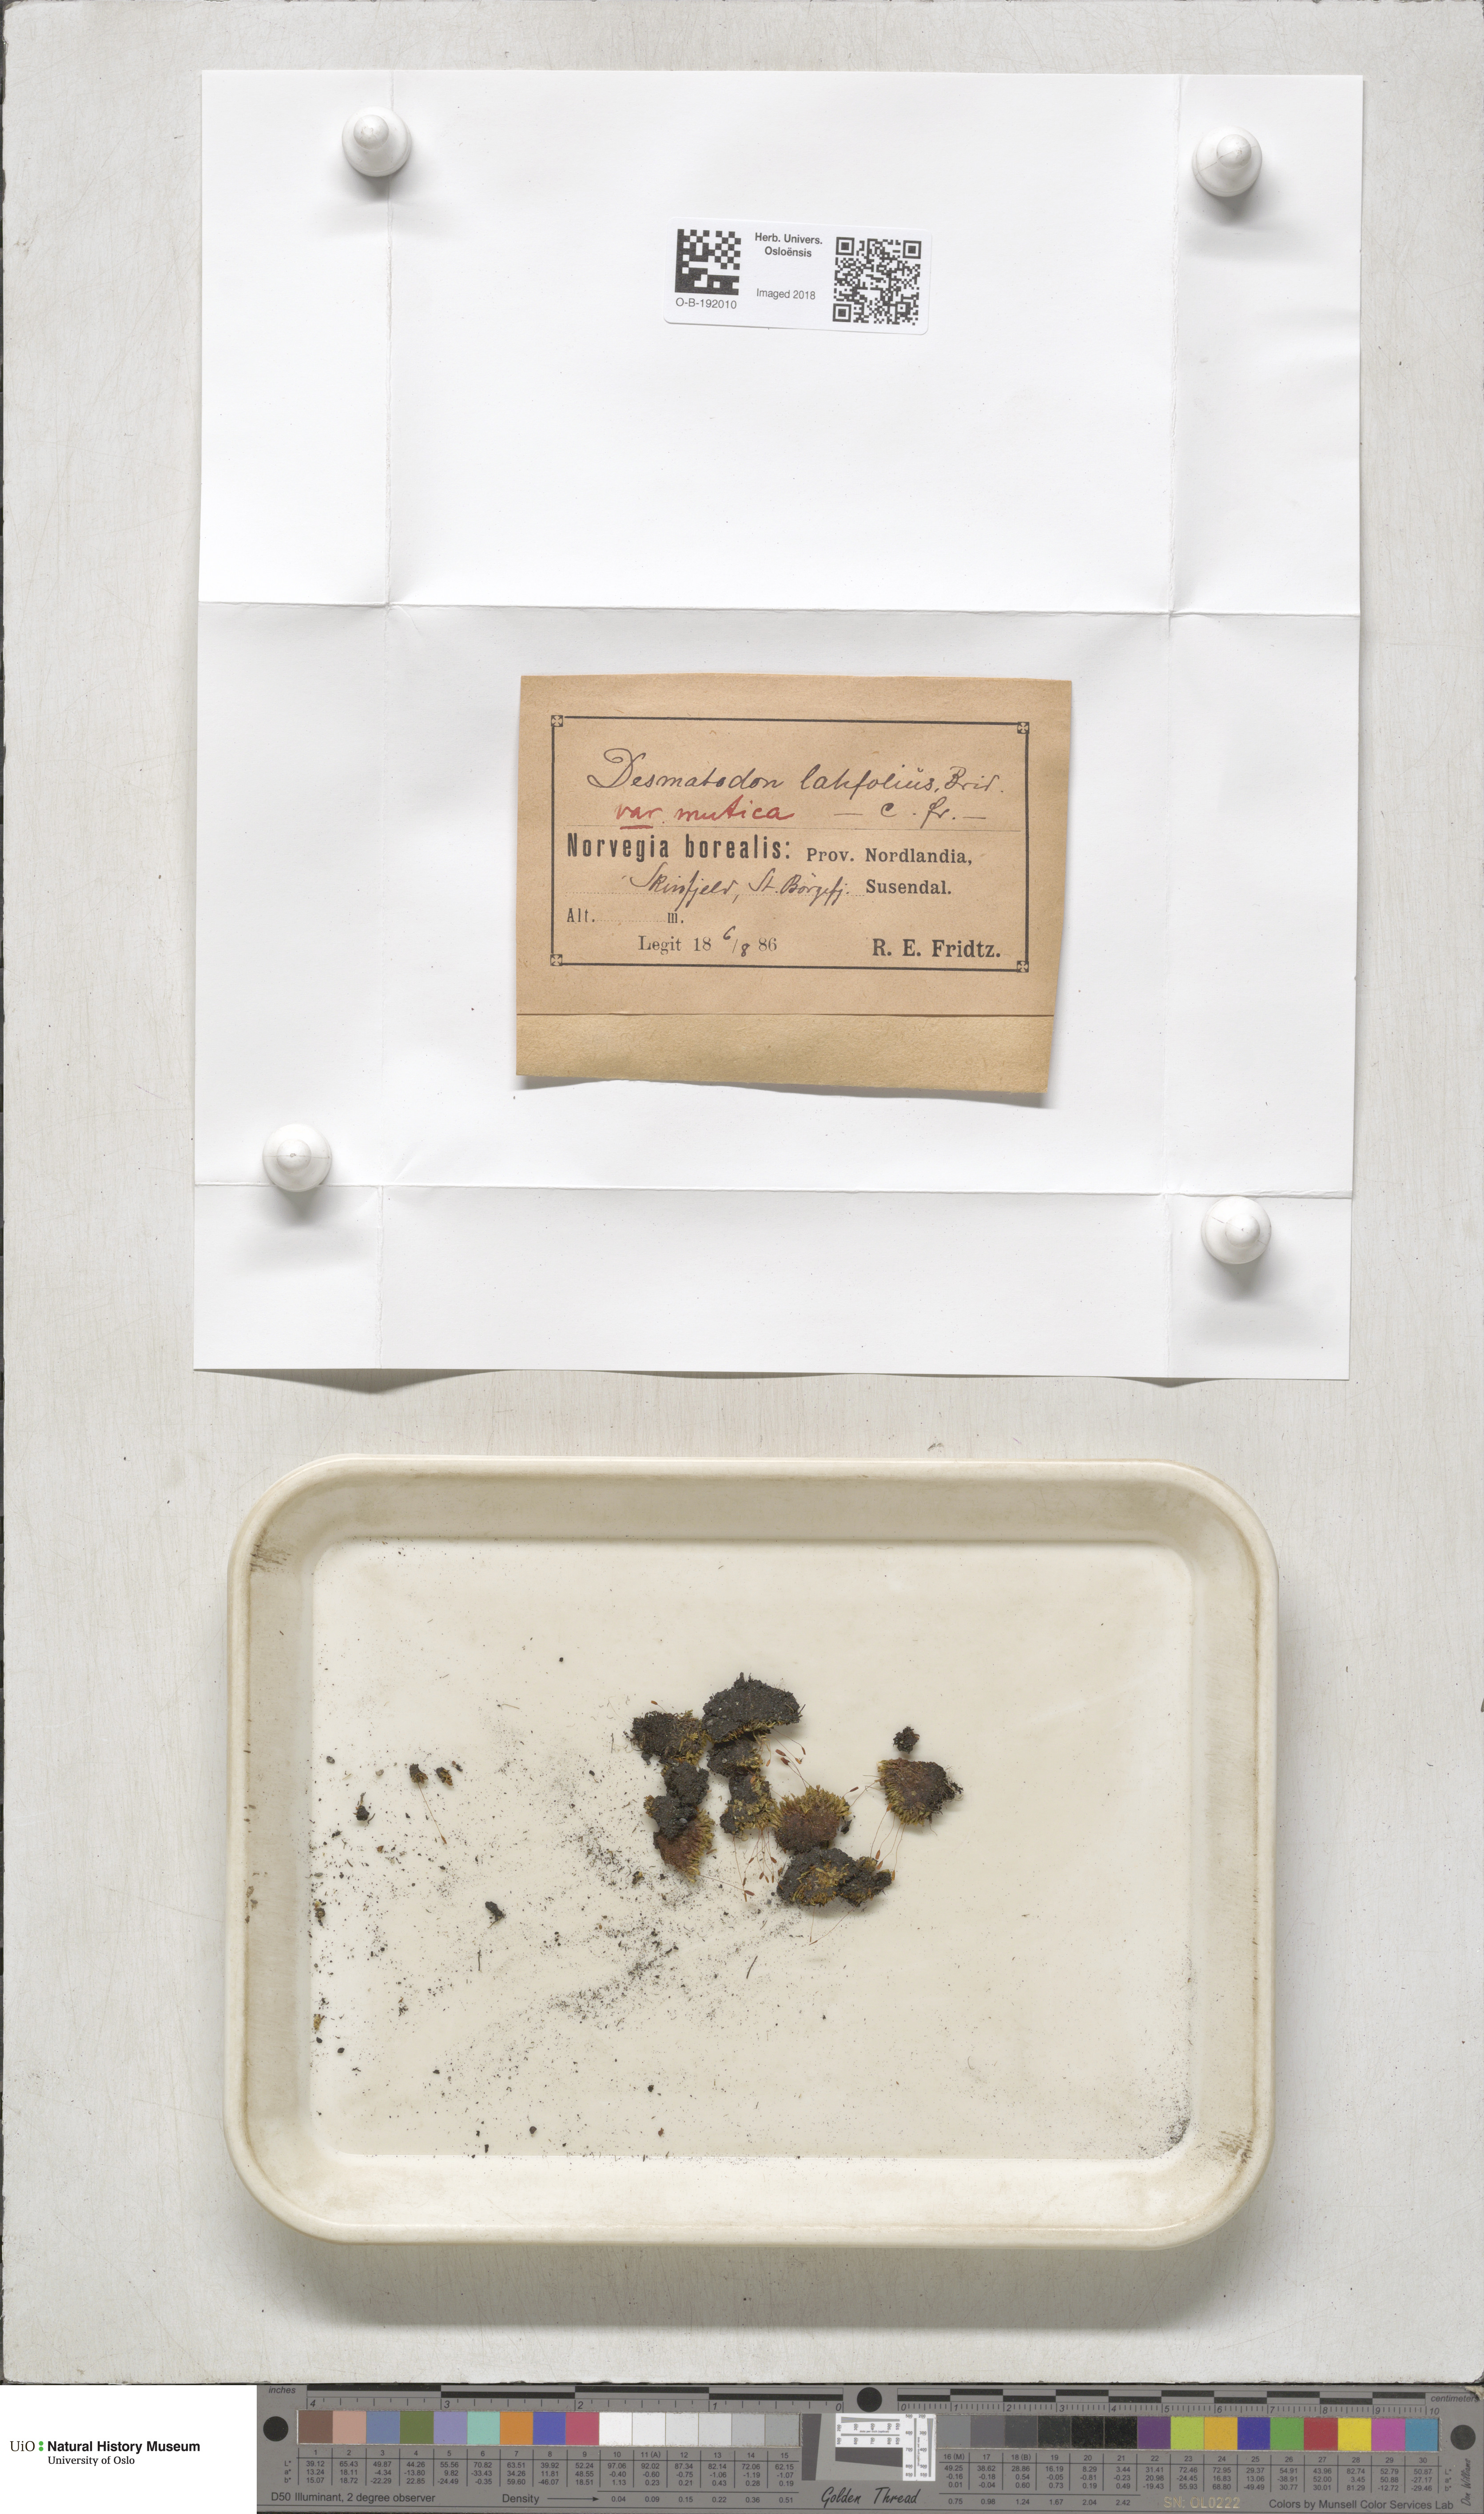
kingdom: Plantae
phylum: Bryophyta
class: Bryopsida
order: Pottiales
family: Pottiaceae
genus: Tortula
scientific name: Tortula hoppeana
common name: Hoppe's screw moss
